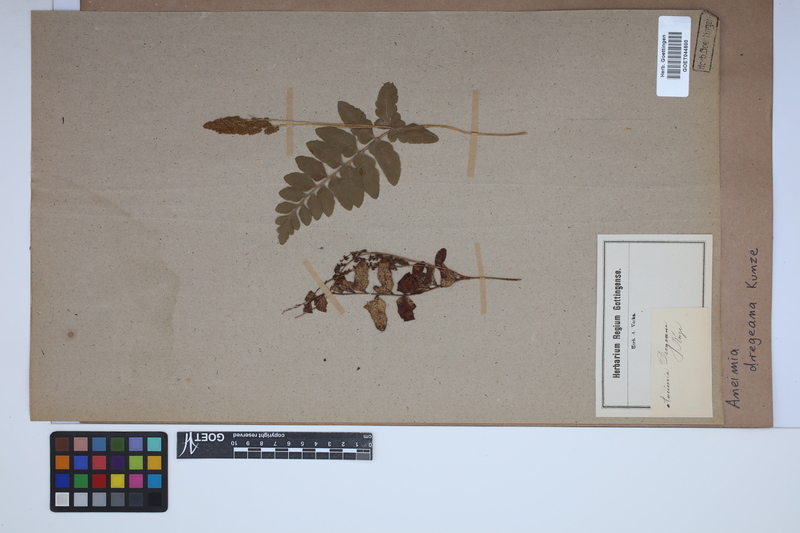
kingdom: Plantae
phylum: Tracheophyta
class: Polypodiopsida
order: Schizaeales
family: Anemiaceae
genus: Anemia
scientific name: Anemia dregeana
